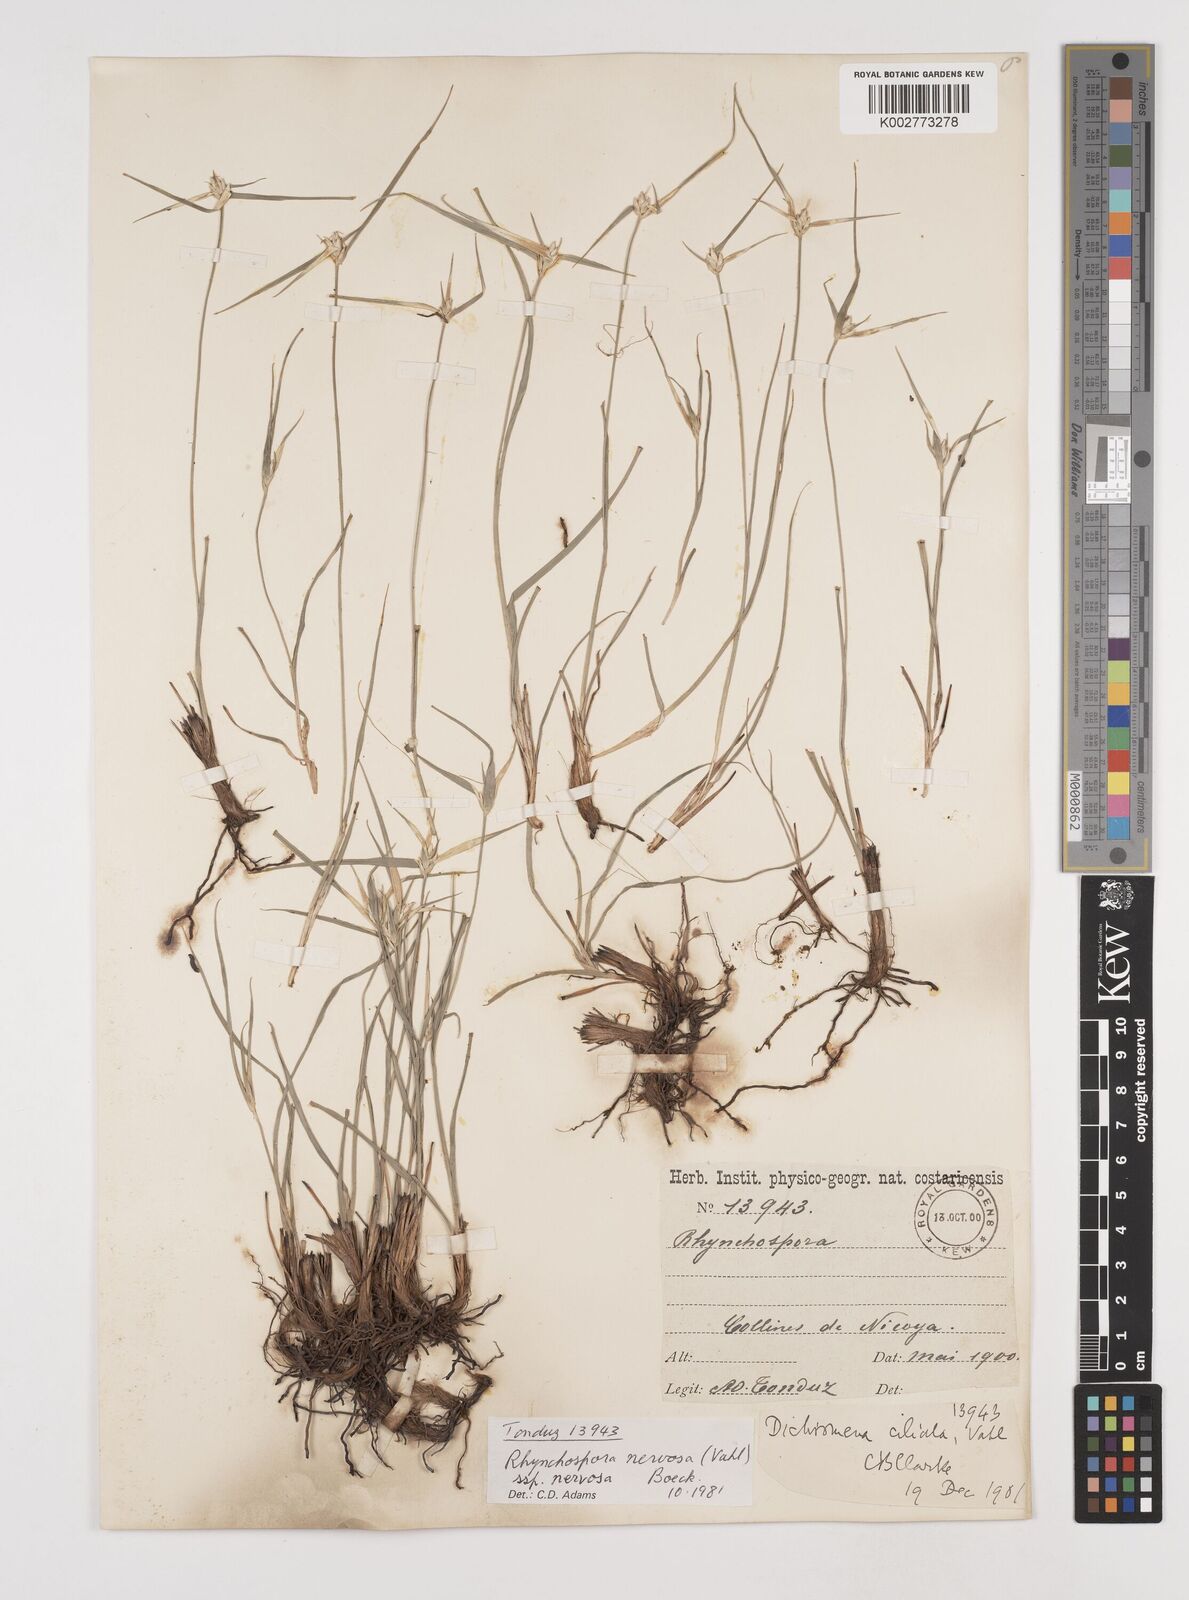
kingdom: Plantae
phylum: Tracheophyta
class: Liliopsida
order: Poales
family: Cyperaceae
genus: Rhynchospora
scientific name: Rhynchospora nervosa
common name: Star sedge
